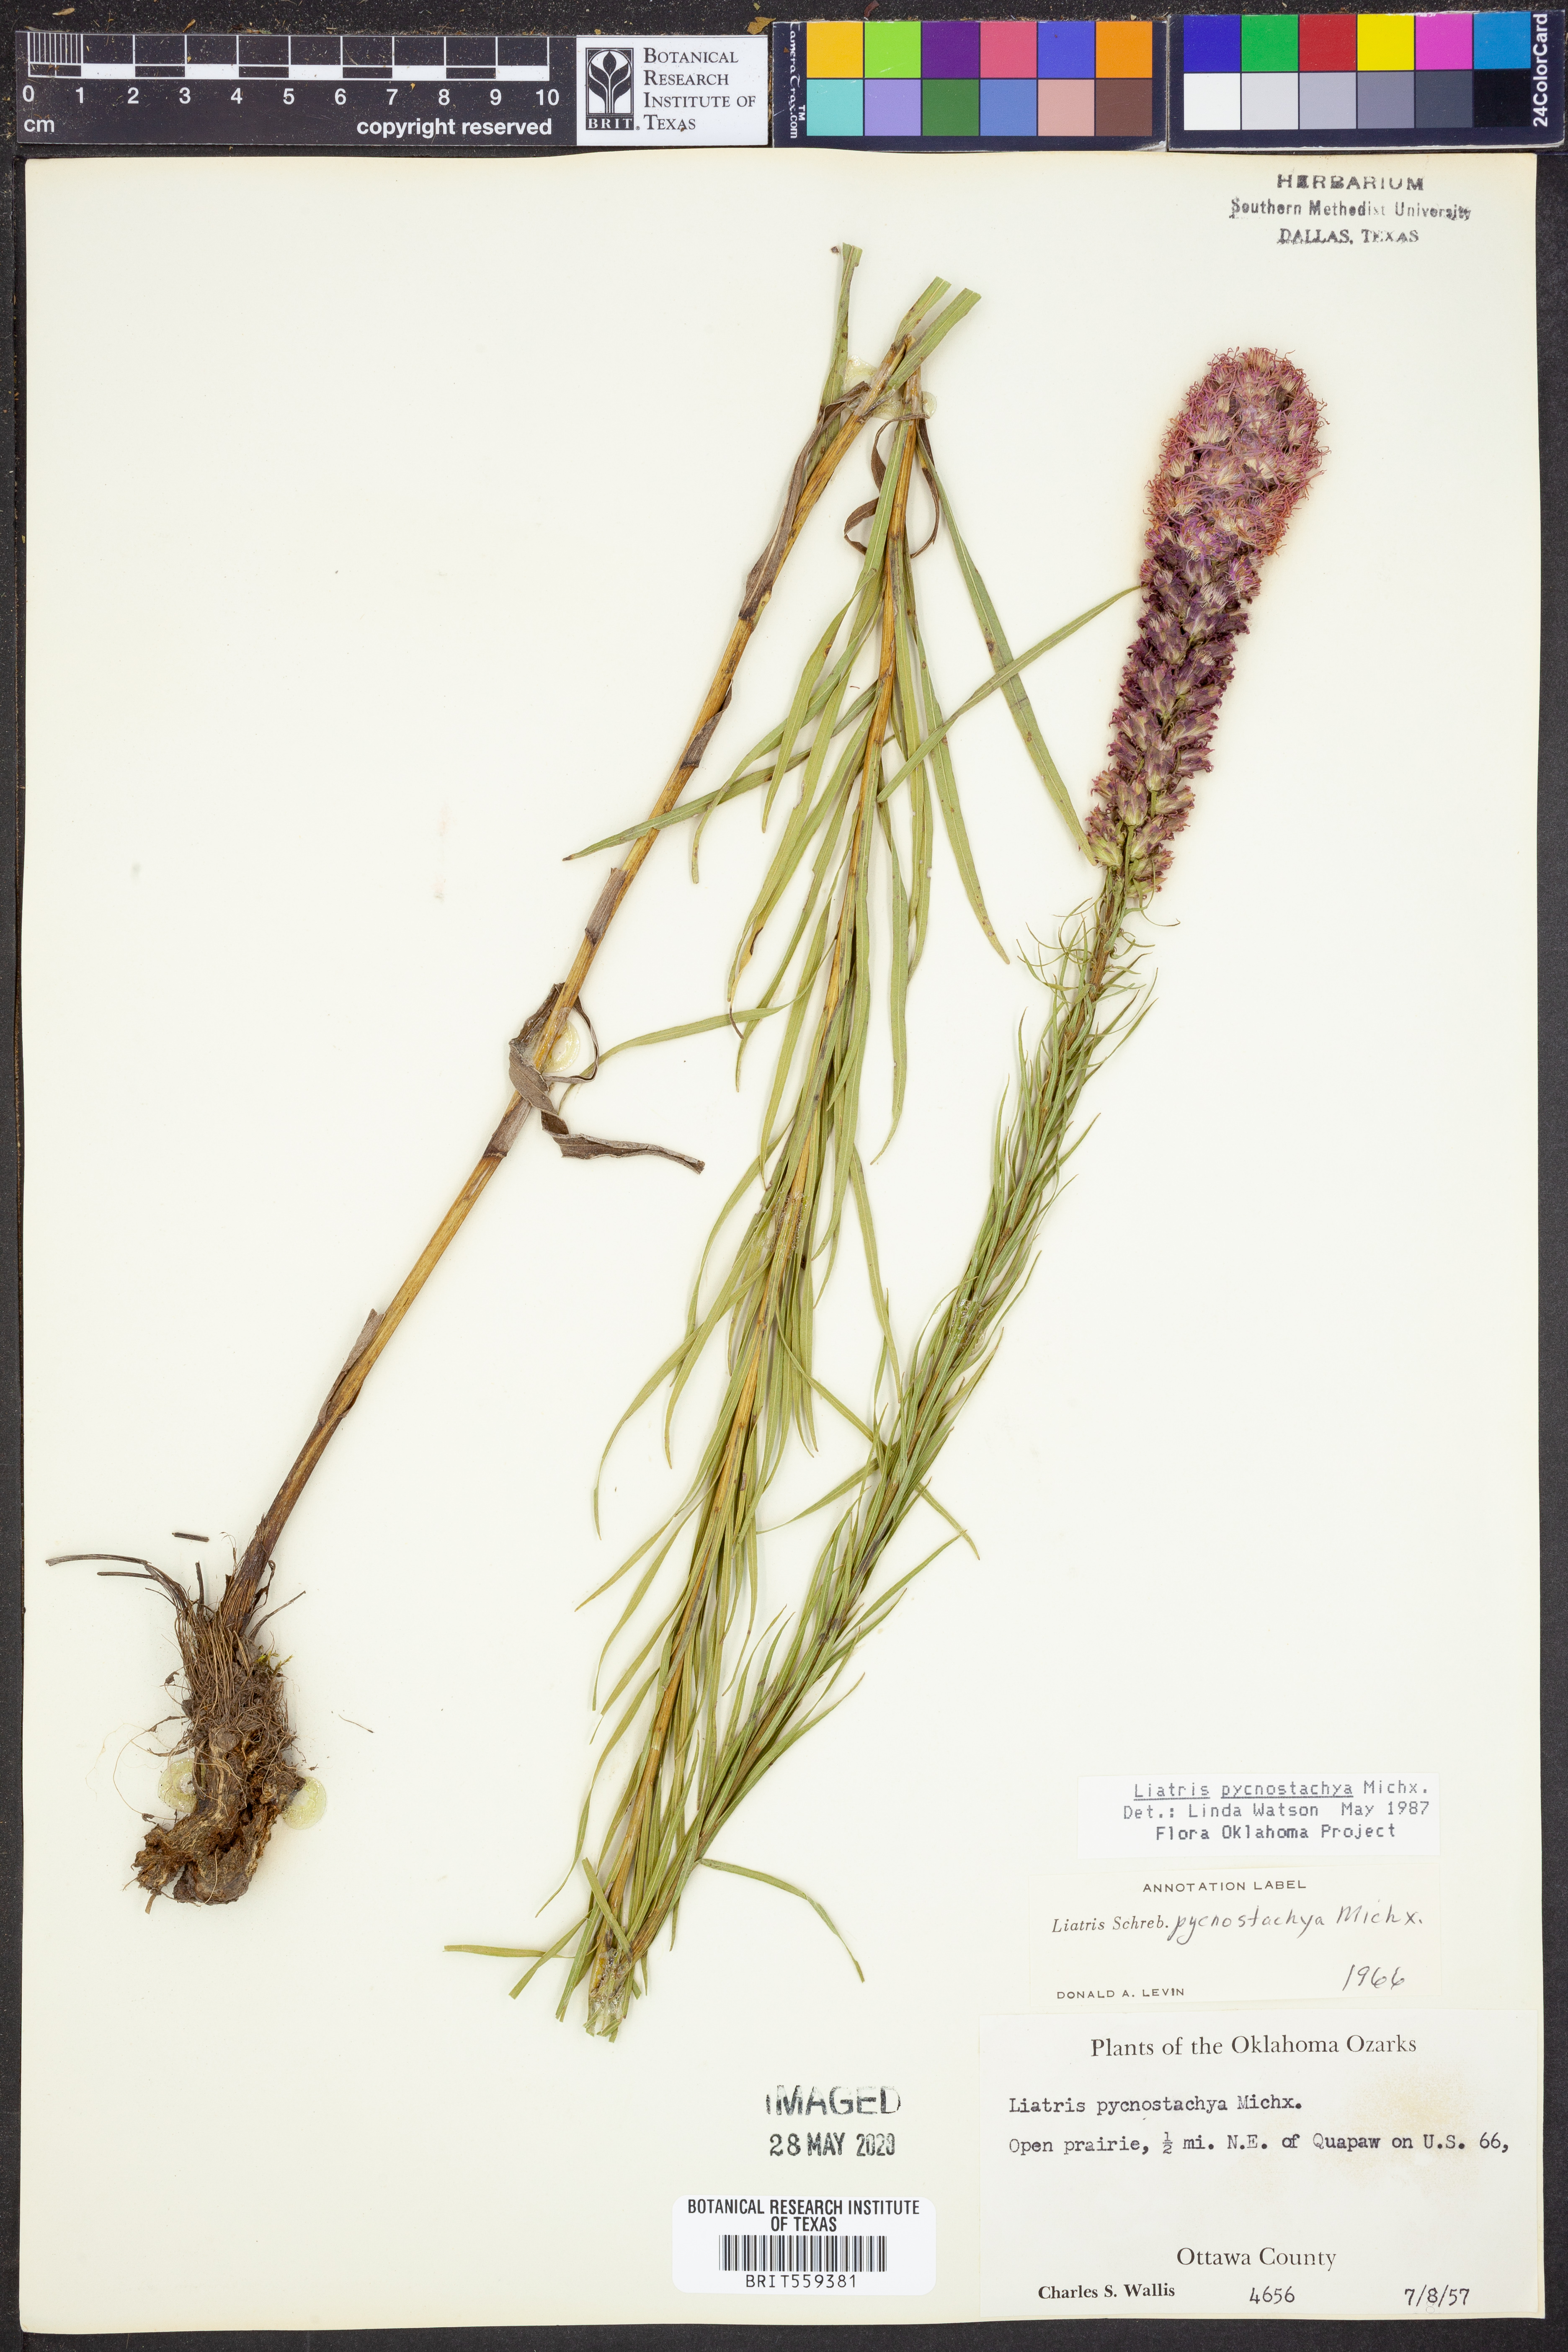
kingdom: Plantae
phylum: Tracheophyta
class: Magnoliopsida
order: Asterales
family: Asteraceae
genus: Liatris
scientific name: Liatris pycnostachya
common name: Cattail gayfeather
